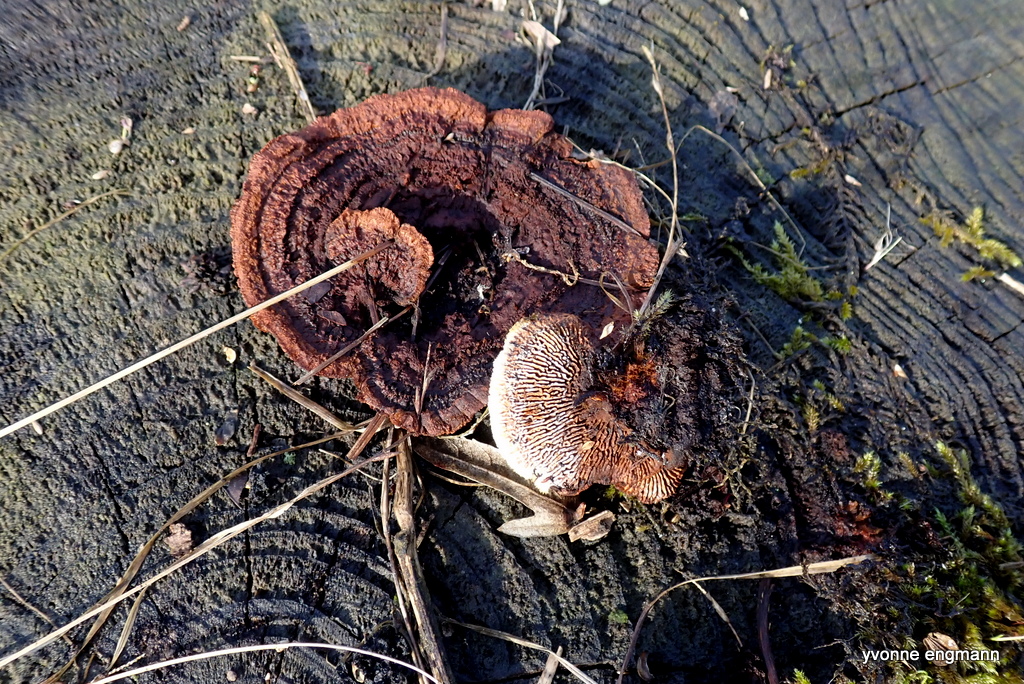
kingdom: Fungi
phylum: Basidiomycota
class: Agaricomycetes
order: Polyporales
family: Fomitopsidaceae
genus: Daedalea
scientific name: Daedalea quercina
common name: ege-labyrintsvamp
